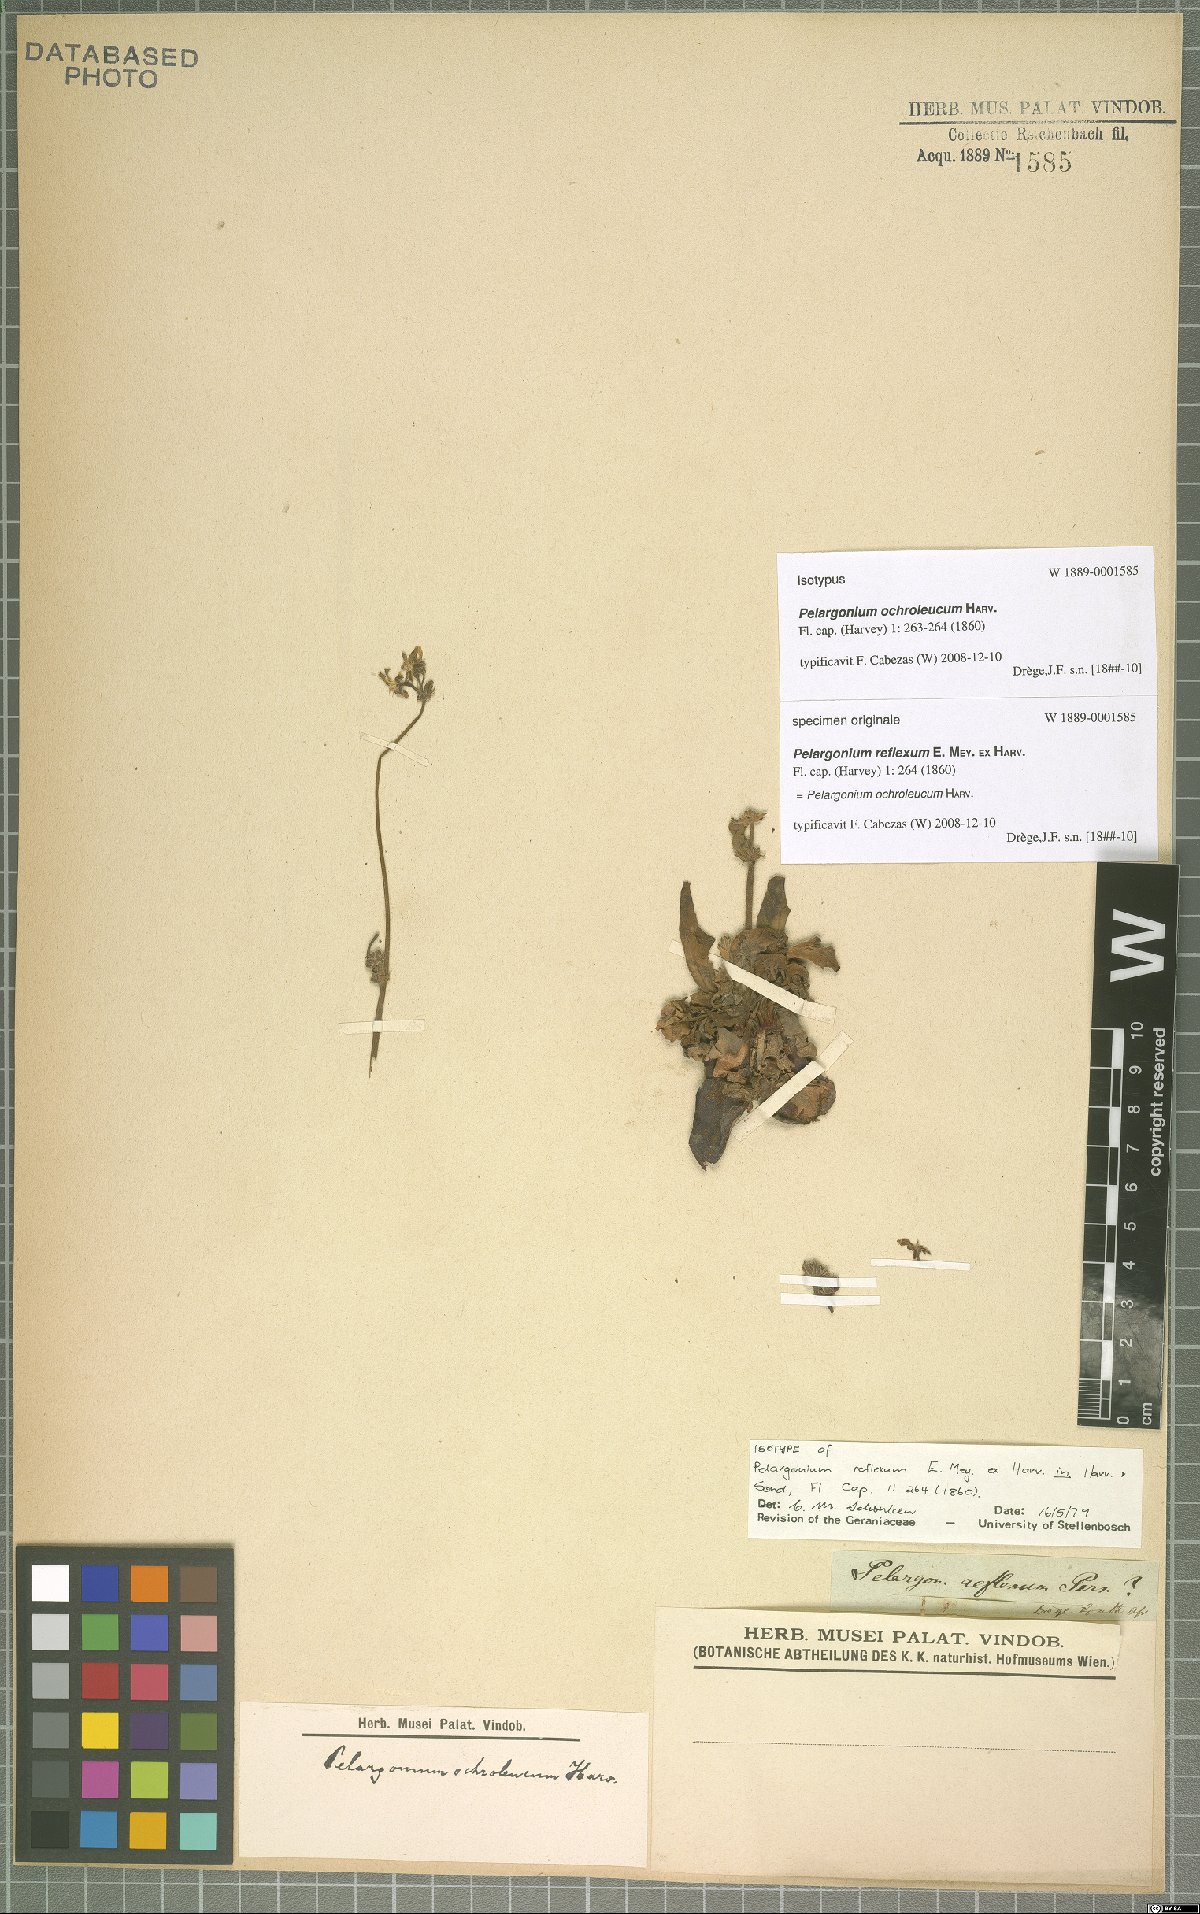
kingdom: Plantae
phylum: Tracheophyta
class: Magnoliopsida
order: Geraniales
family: Geraniaceae
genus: Pelargonium
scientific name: Pelargonium ochroleucum
